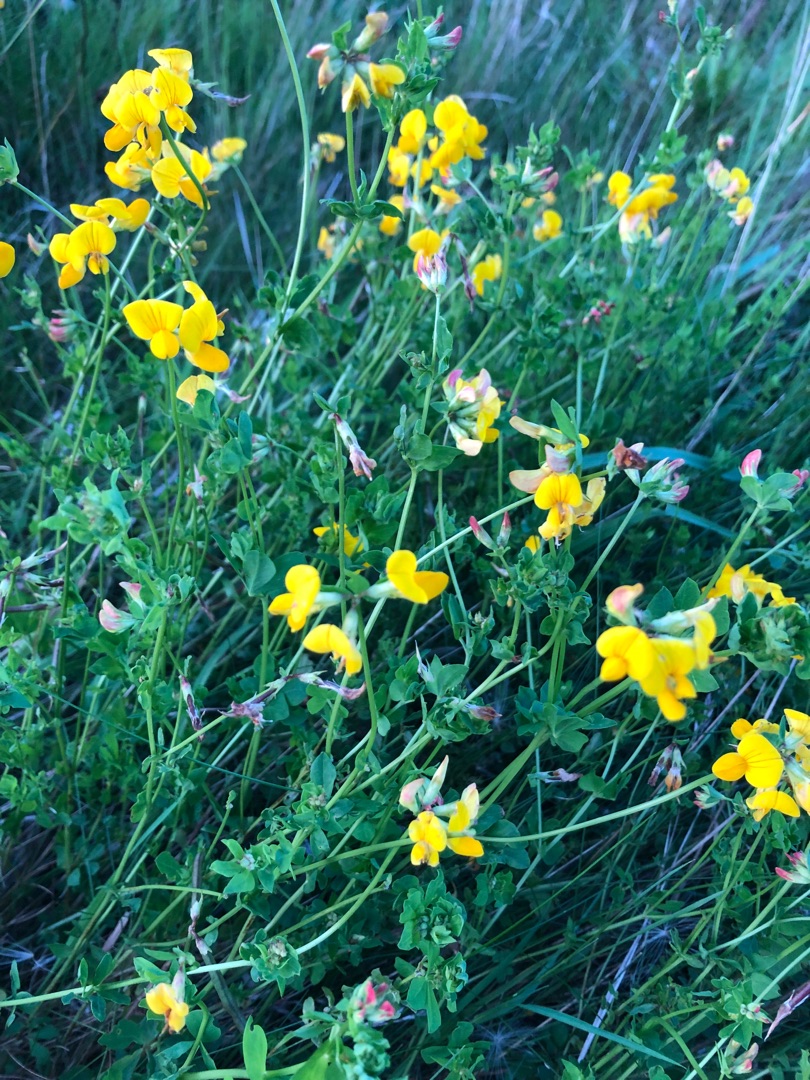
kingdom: Plantae
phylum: Tracheophyta
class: Magnoliopsida
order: Fabales
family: Fabaceae
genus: Lotus
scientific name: Lotus corniculatus
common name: Almindelig kællingetand
